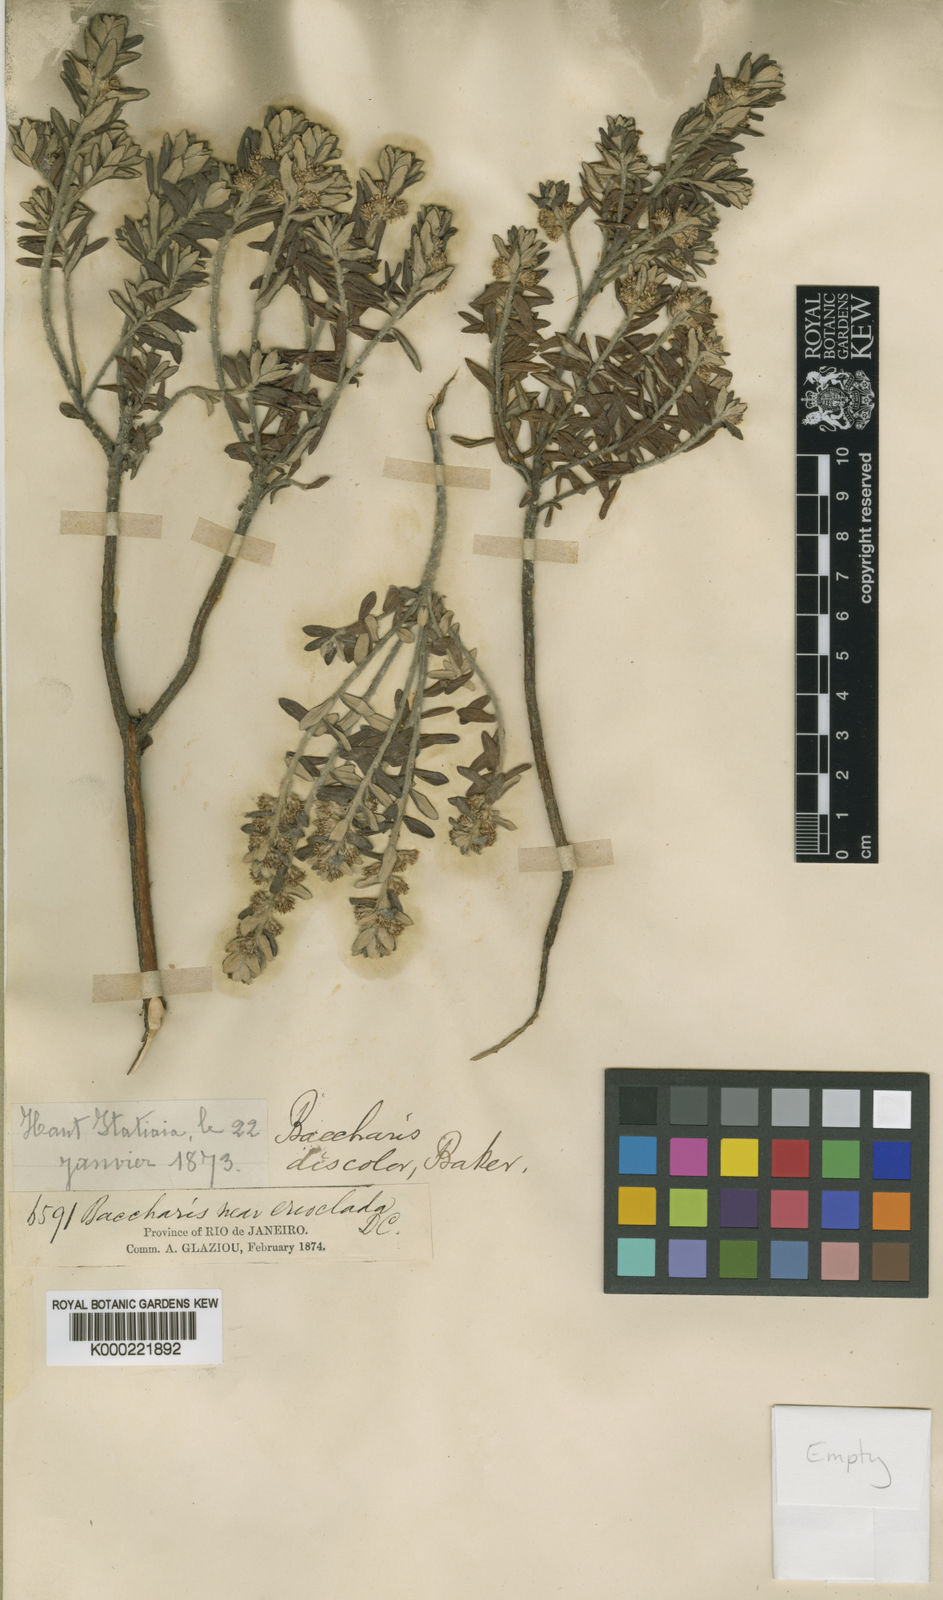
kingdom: Plantae
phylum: Tracheophyta
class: Magnoliopsida
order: Asterales
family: Asteraceae
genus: Baccharis
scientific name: Baccharis
